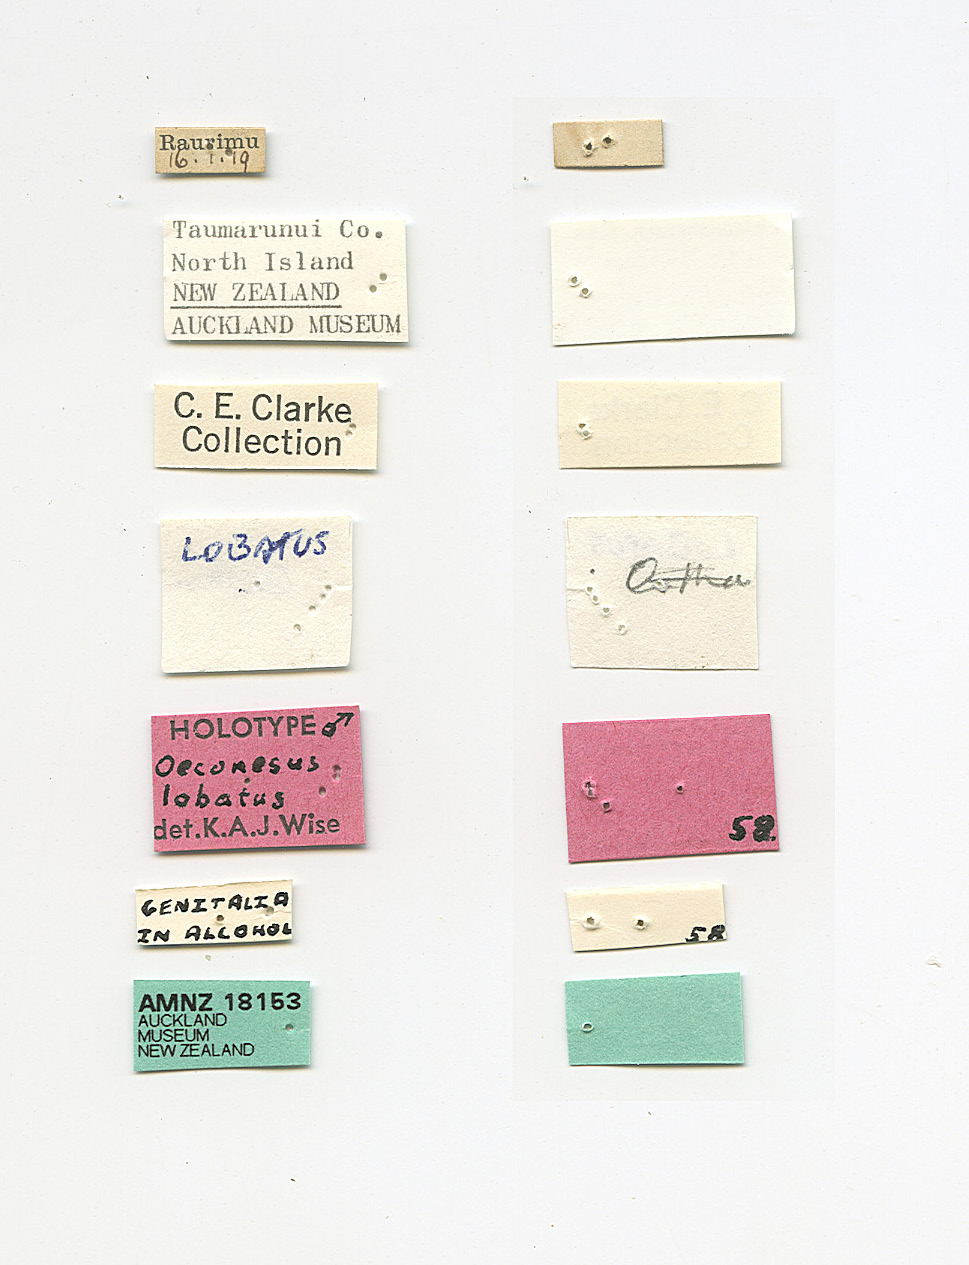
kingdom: Animalia
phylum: Arthropoda
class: Insecta
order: Trichoptera
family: Oeconesidae
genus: Oeconesus
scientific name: Oeconesus lobatus
